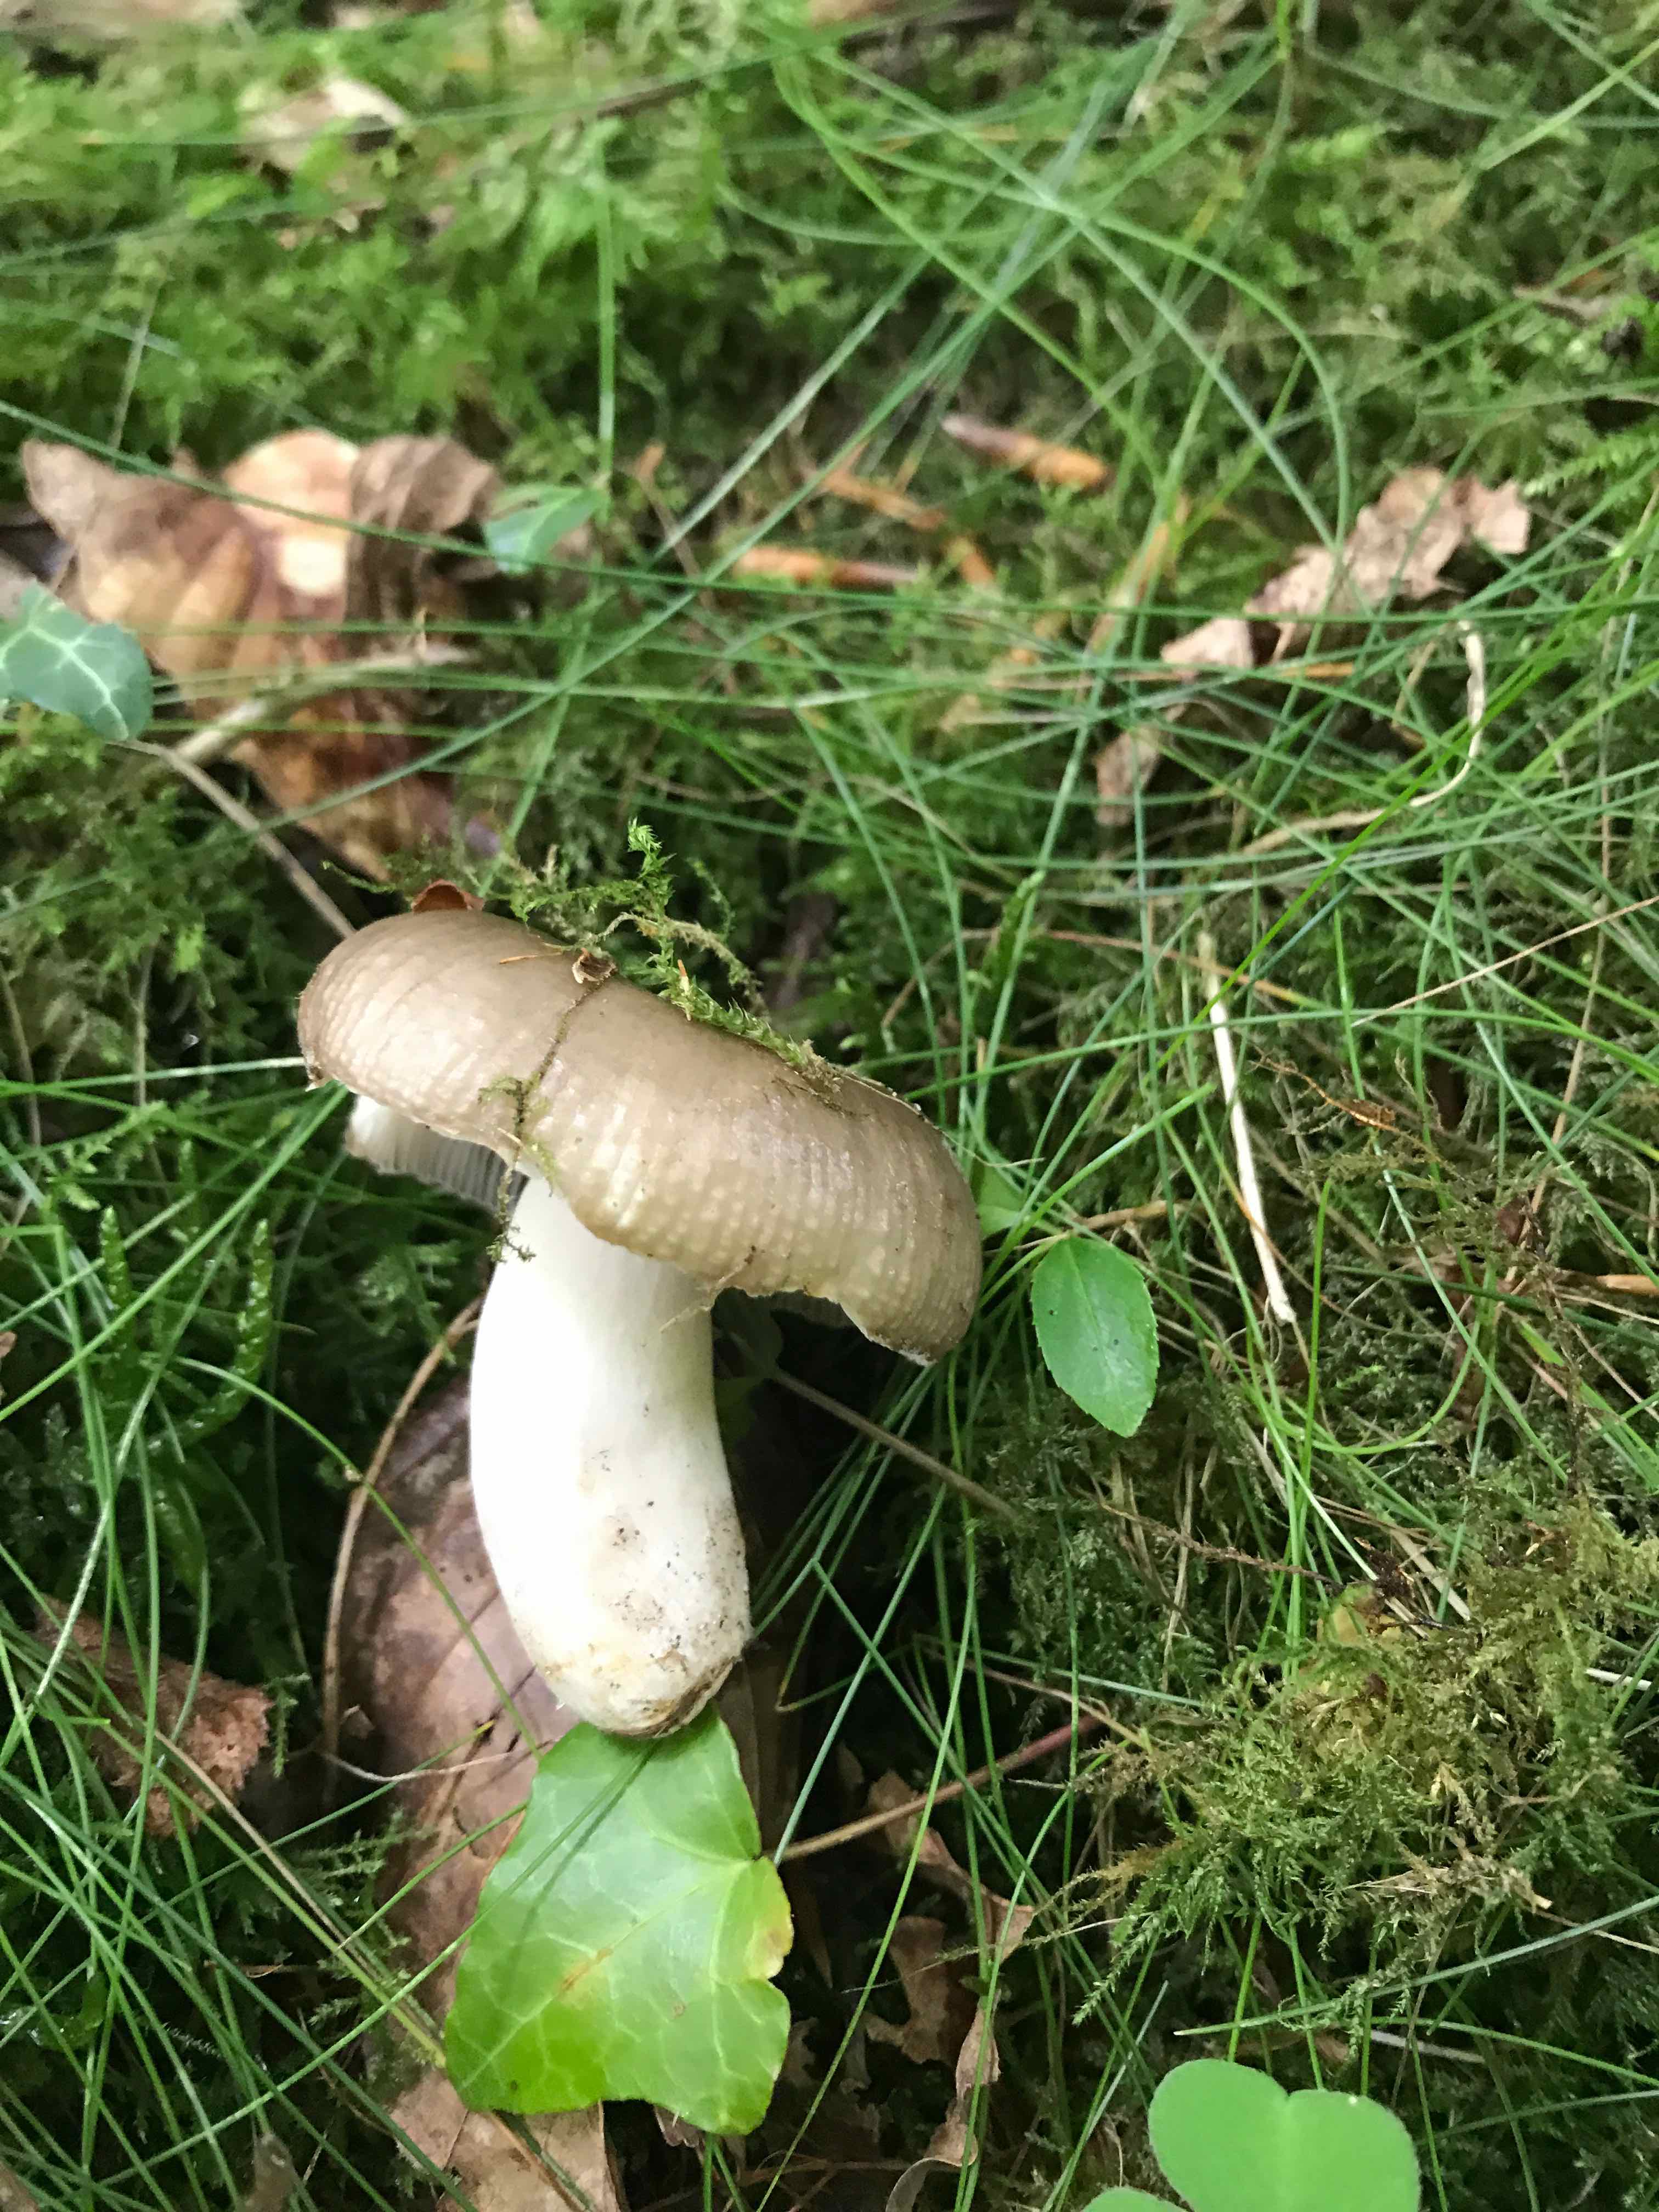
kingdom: Fungi
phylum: Basidiomycota
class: Agaricomycetes
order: Russulales
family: Russulaceae
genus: Russula
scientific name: Russula amoenolens
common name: skarp kam-skørhat
